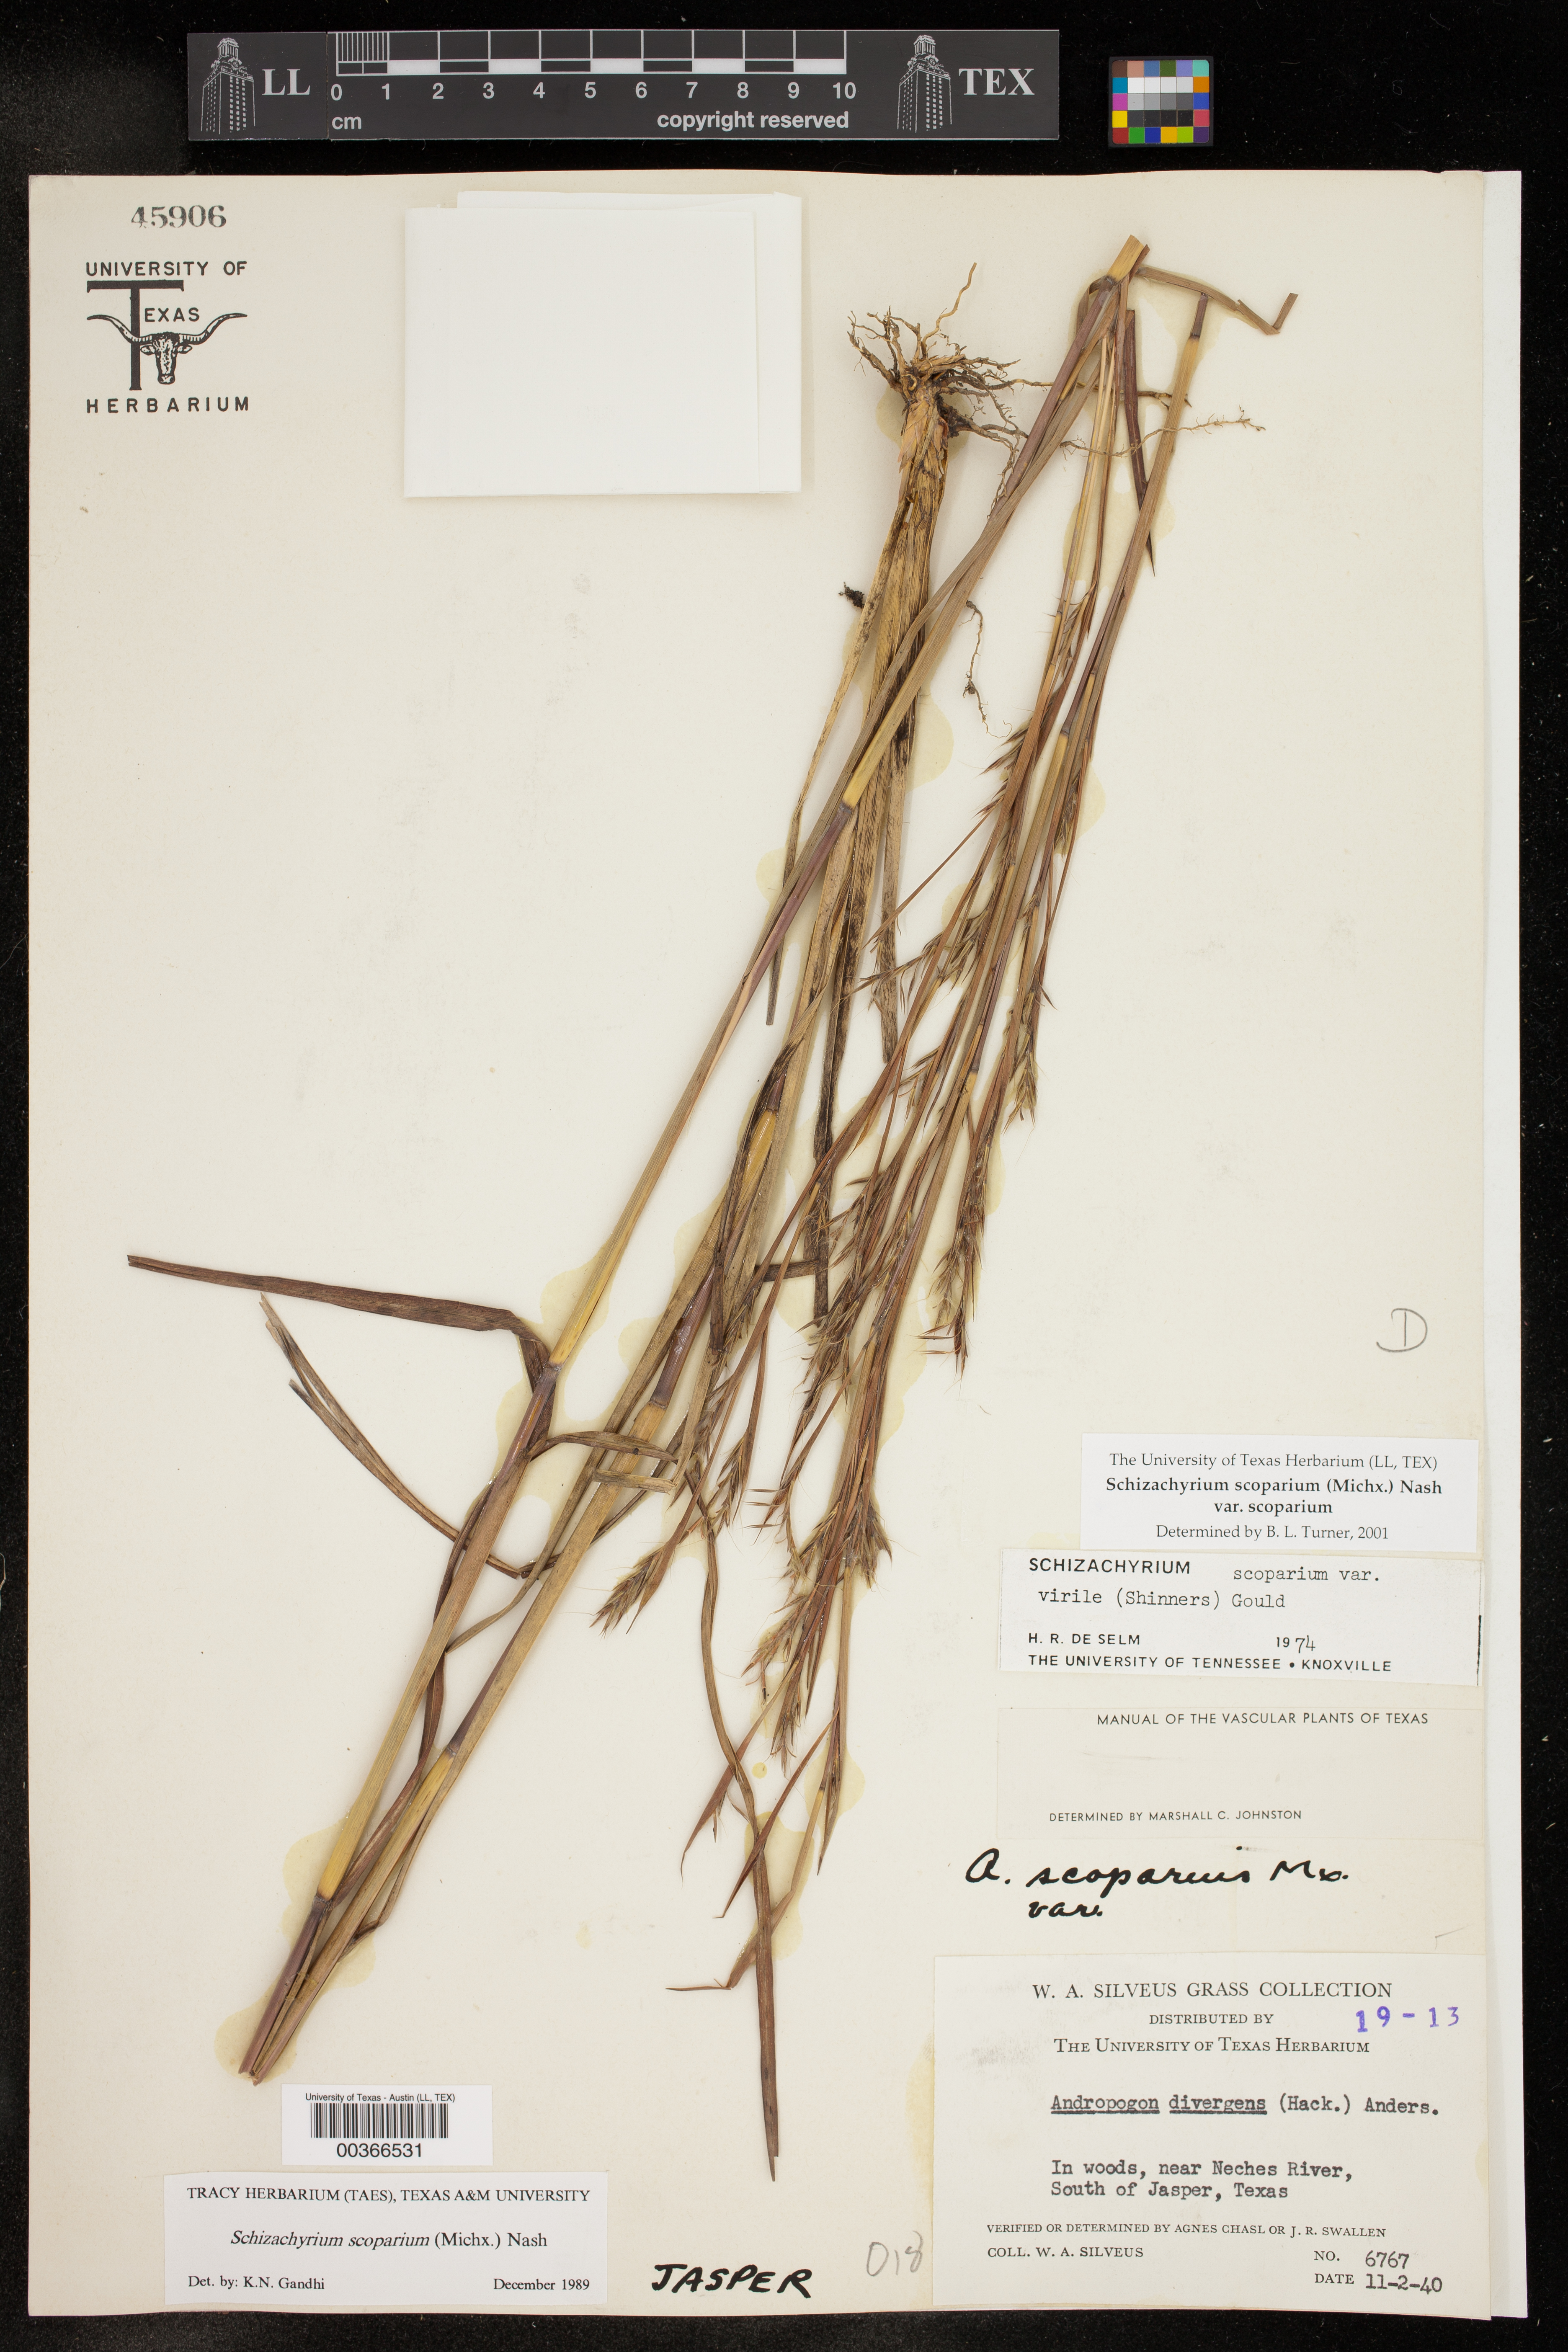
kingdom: Plantae
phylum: Tracheophyta
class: Liliopsida
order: Poales
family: Poaceae
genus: Schizachyrium
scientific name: Schizachyrium scoparium
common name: Little bluestem
